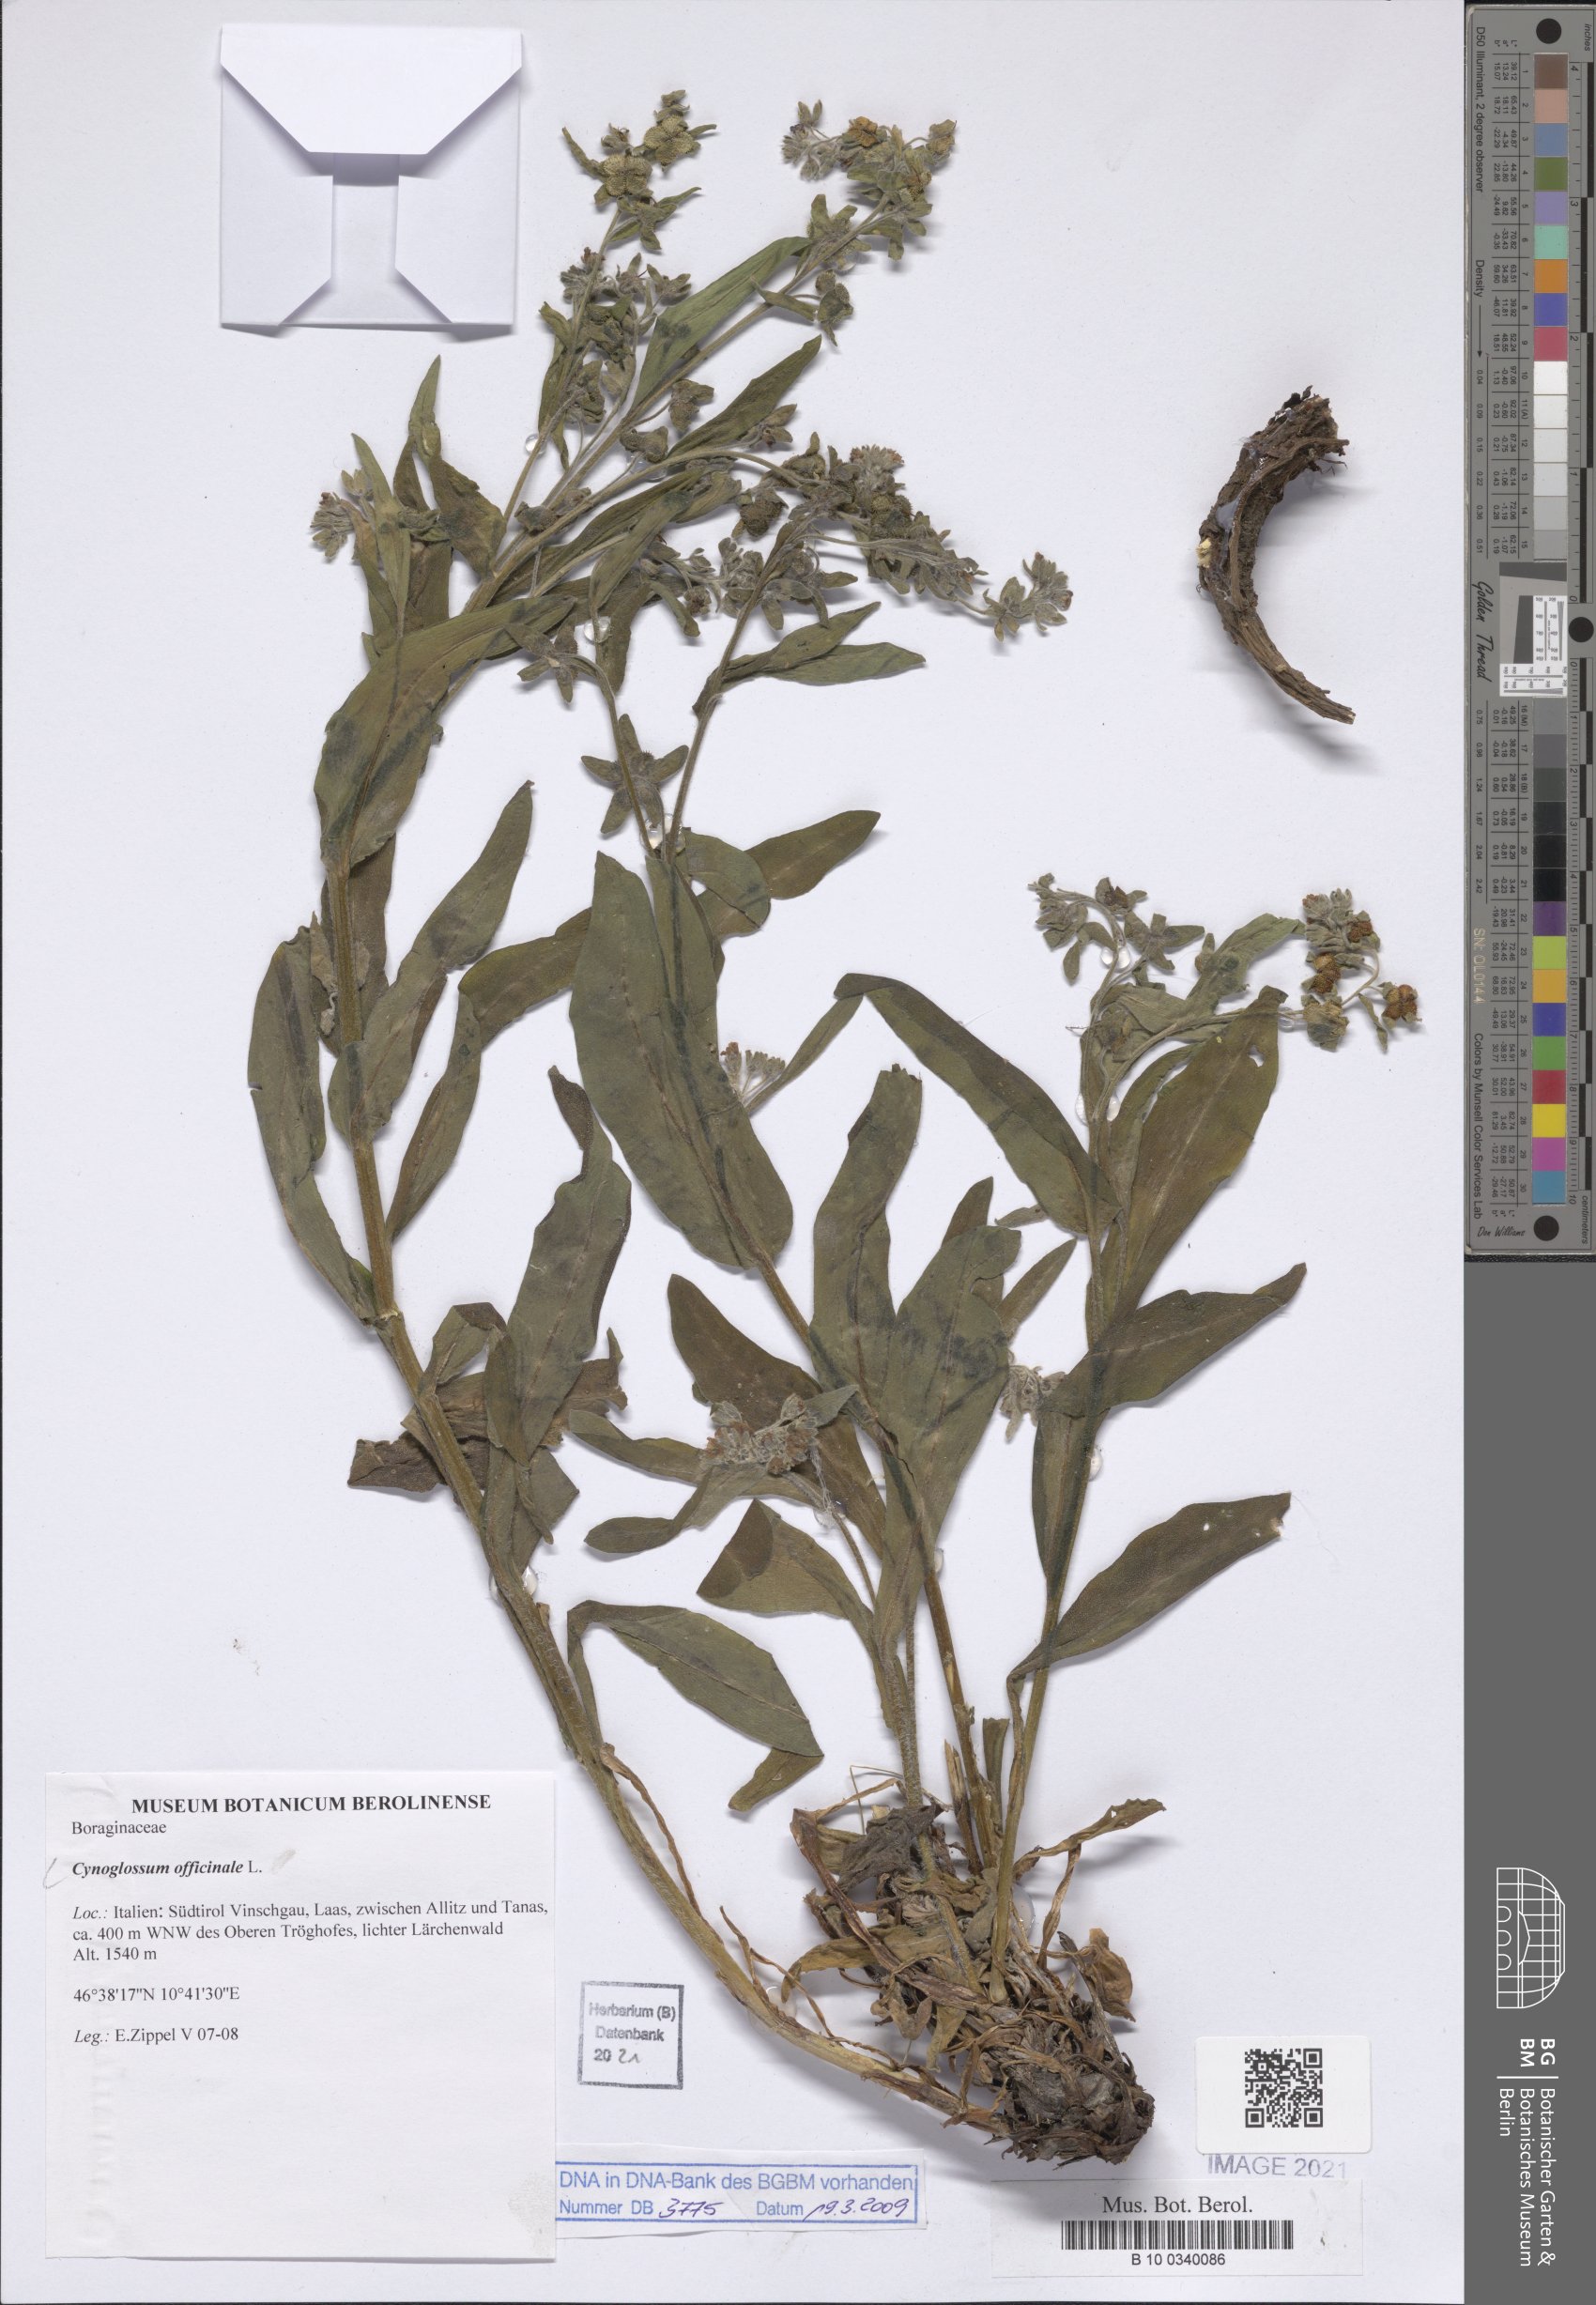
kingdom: Plantae
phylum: Tracheophyta
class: Magnoliopsida
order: Boraginales
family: Boraginaceae
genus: Cynoglossum
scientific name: Cynoglossum officinale
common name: Hound's-tongue
